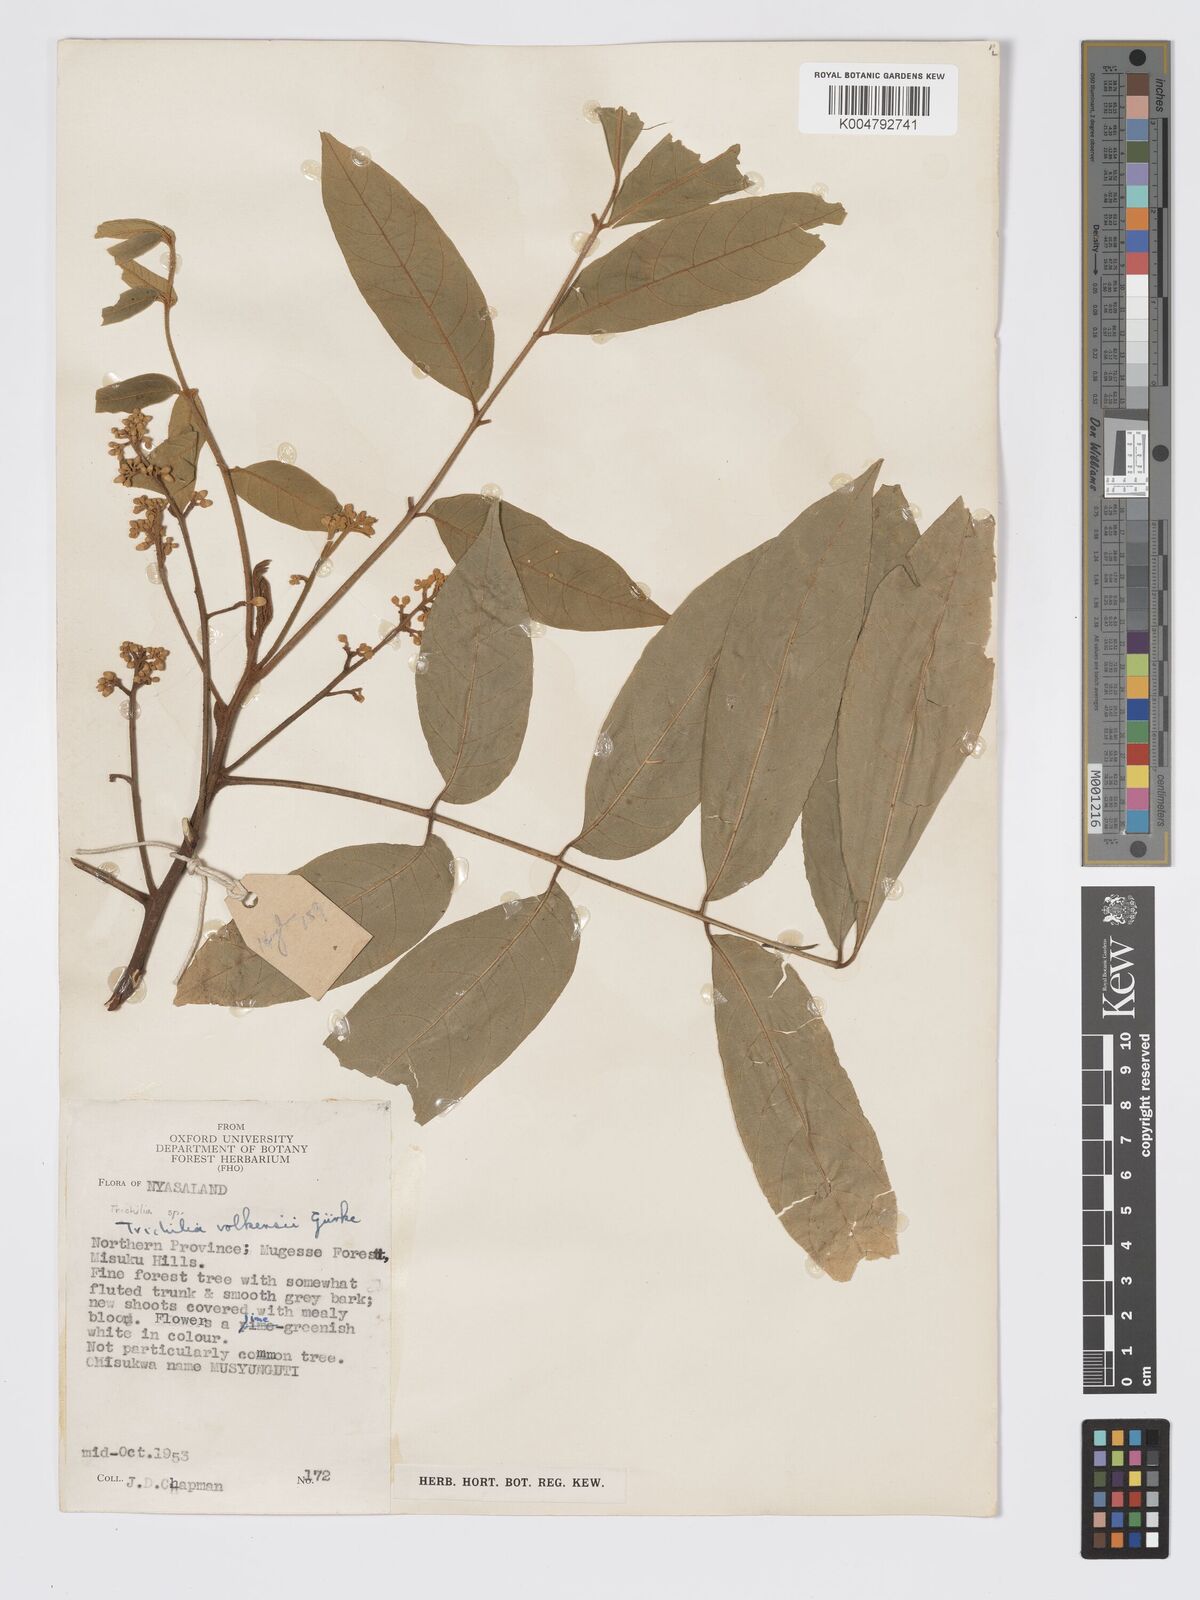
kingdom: Plantae
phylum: Tracheophyta
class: Magnoliopsida
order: Sapindales
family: Meliaceae
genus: Lepidotrichilia
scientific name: Lepidotrichilia volkensii
